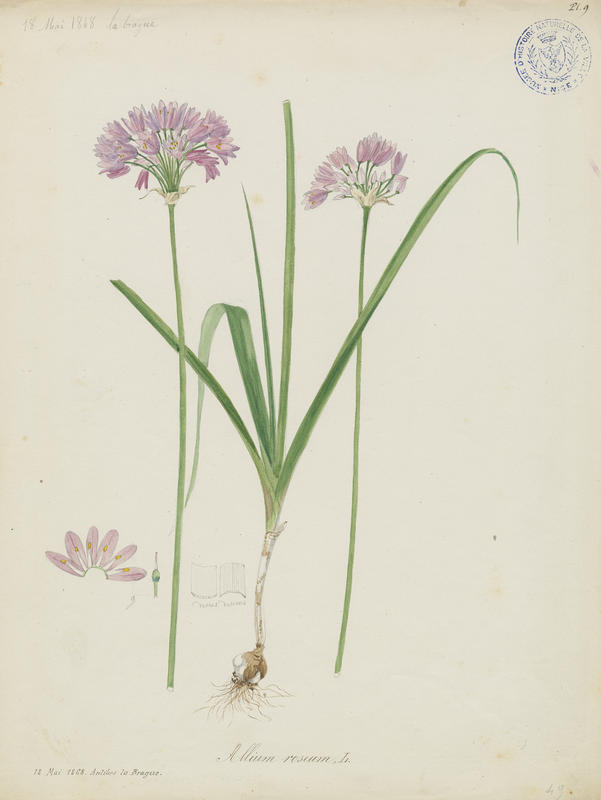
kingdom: Plantae
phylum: Tracheophyta
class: Liliopsida
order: Asparagales
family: Amaryllidaceae
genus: Allium
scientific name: Allium roseum
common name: Rosy garlic
